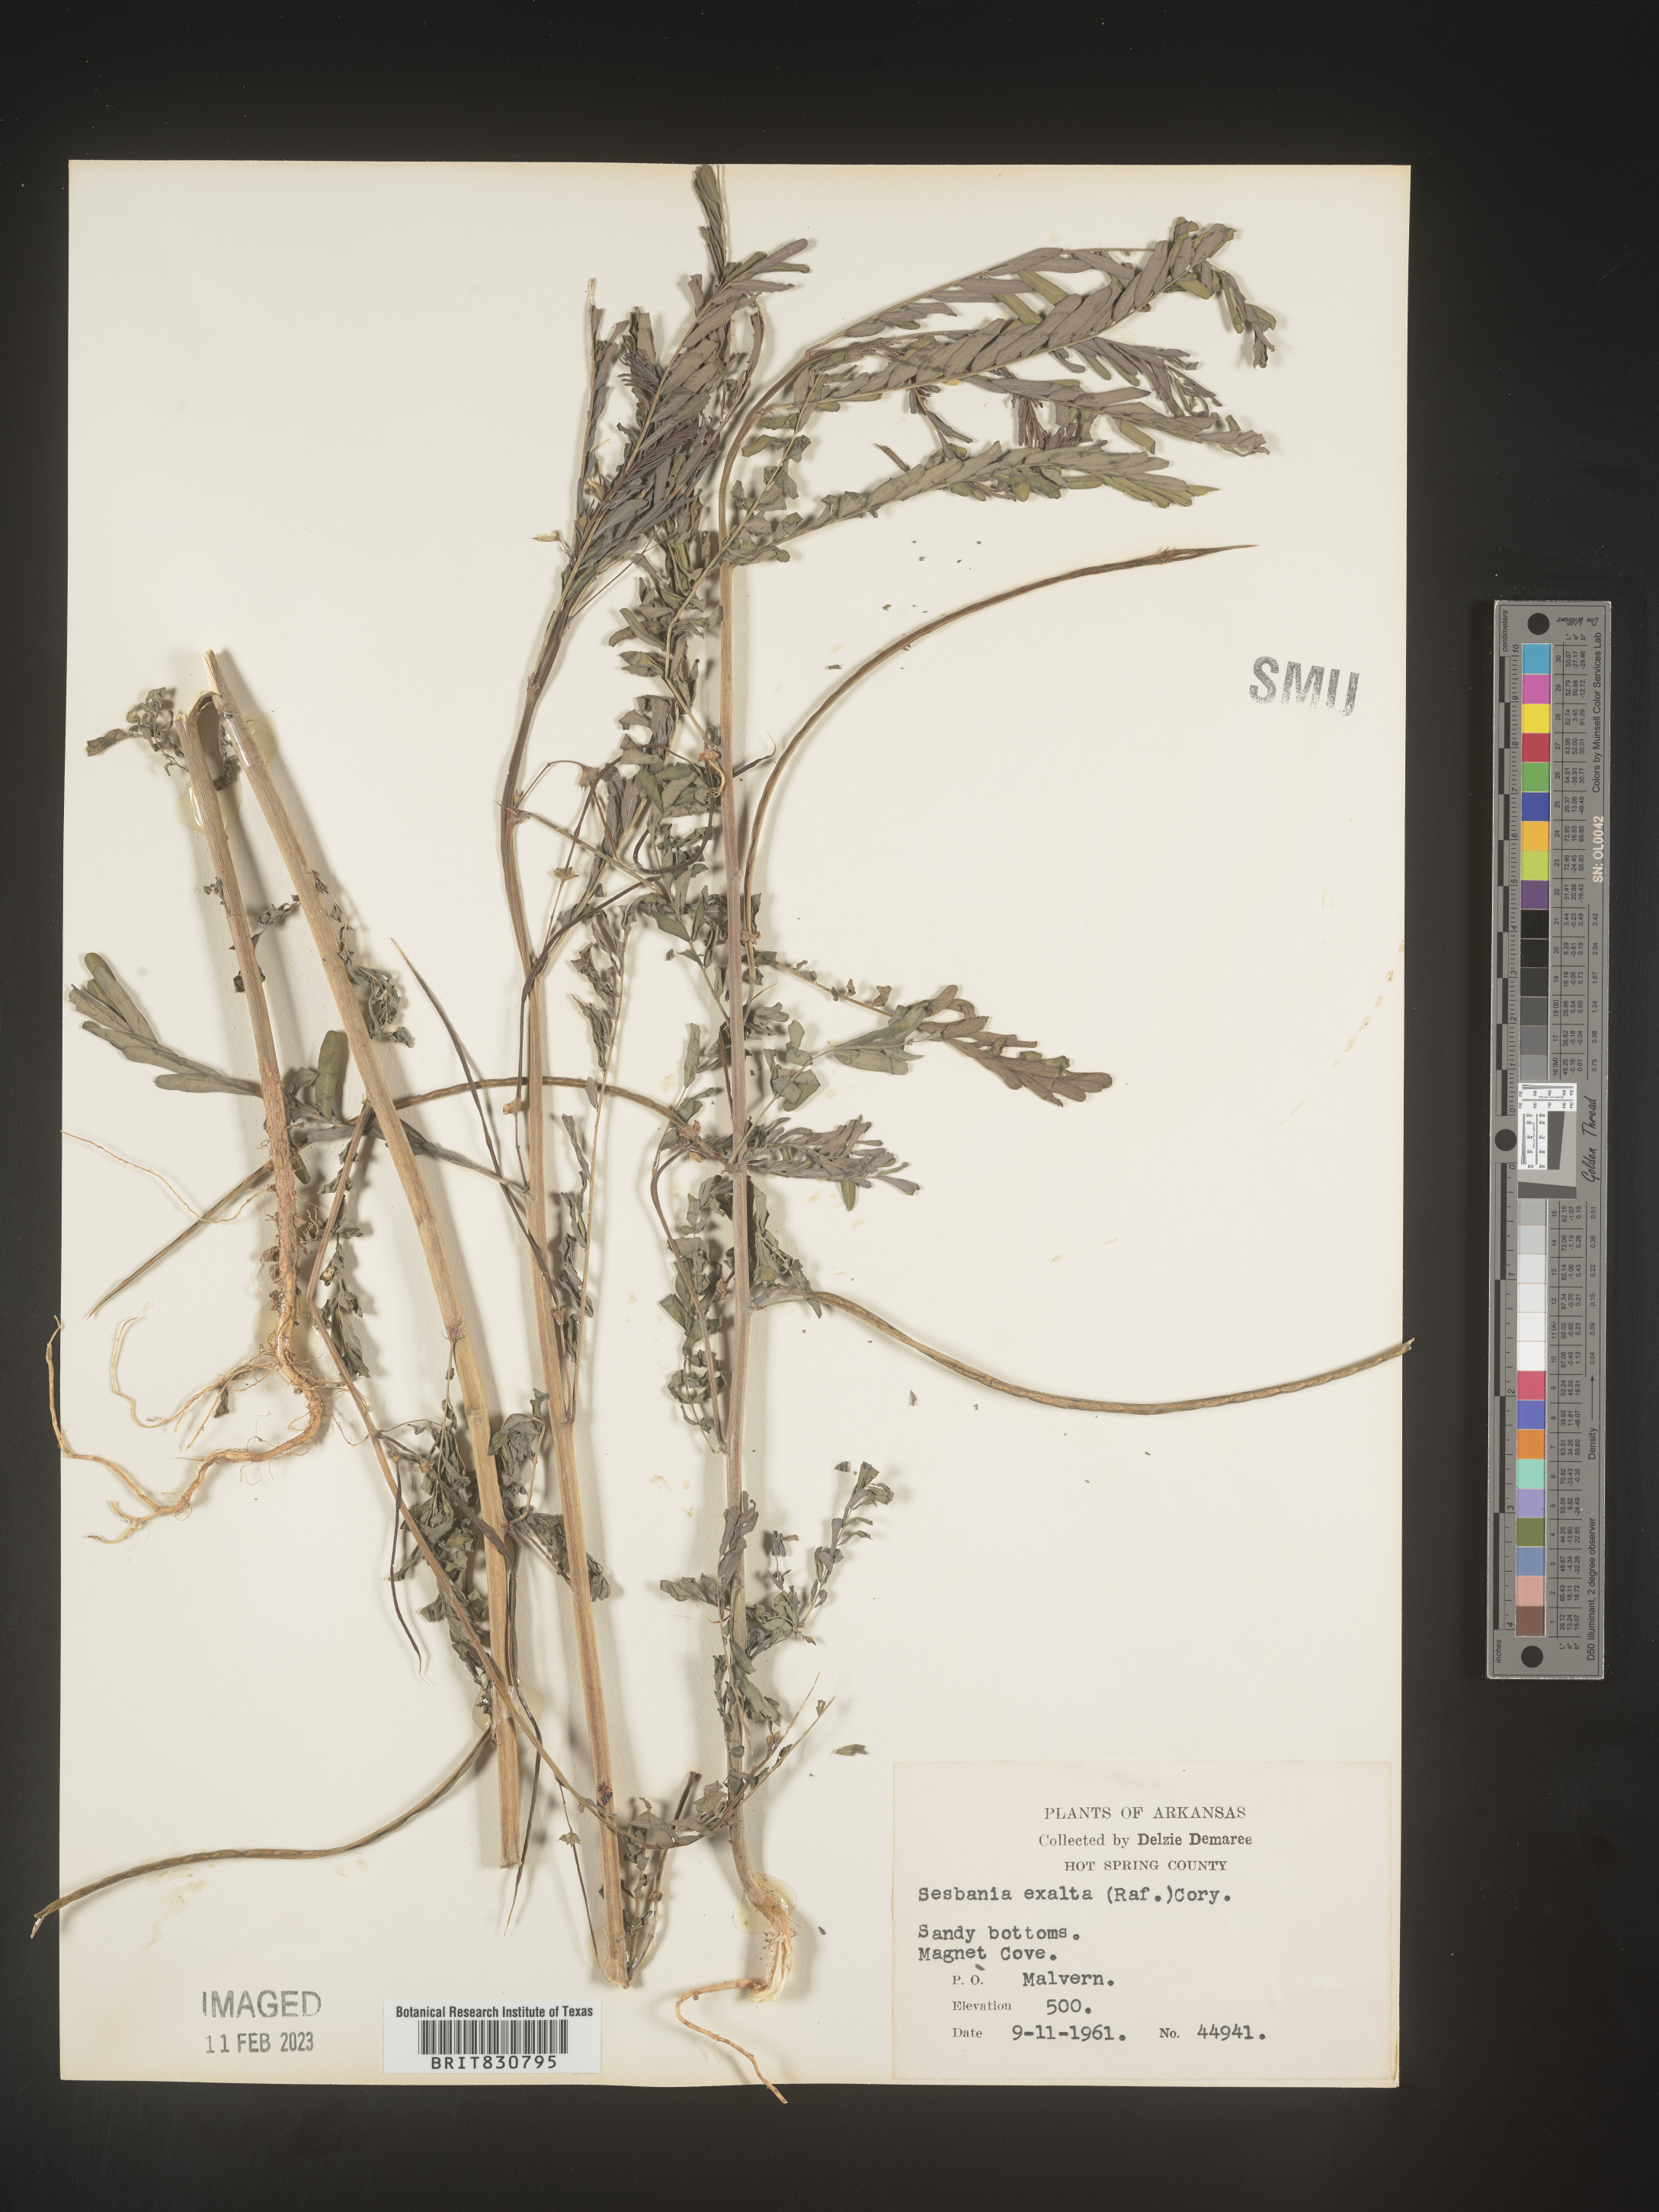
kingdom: Plantae
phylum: Tracheophyta
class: Magnoliopsida
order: Fabales
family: Fabaceae
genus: Sesbania
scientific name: Sesbania vesicaria
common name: Bagpod
